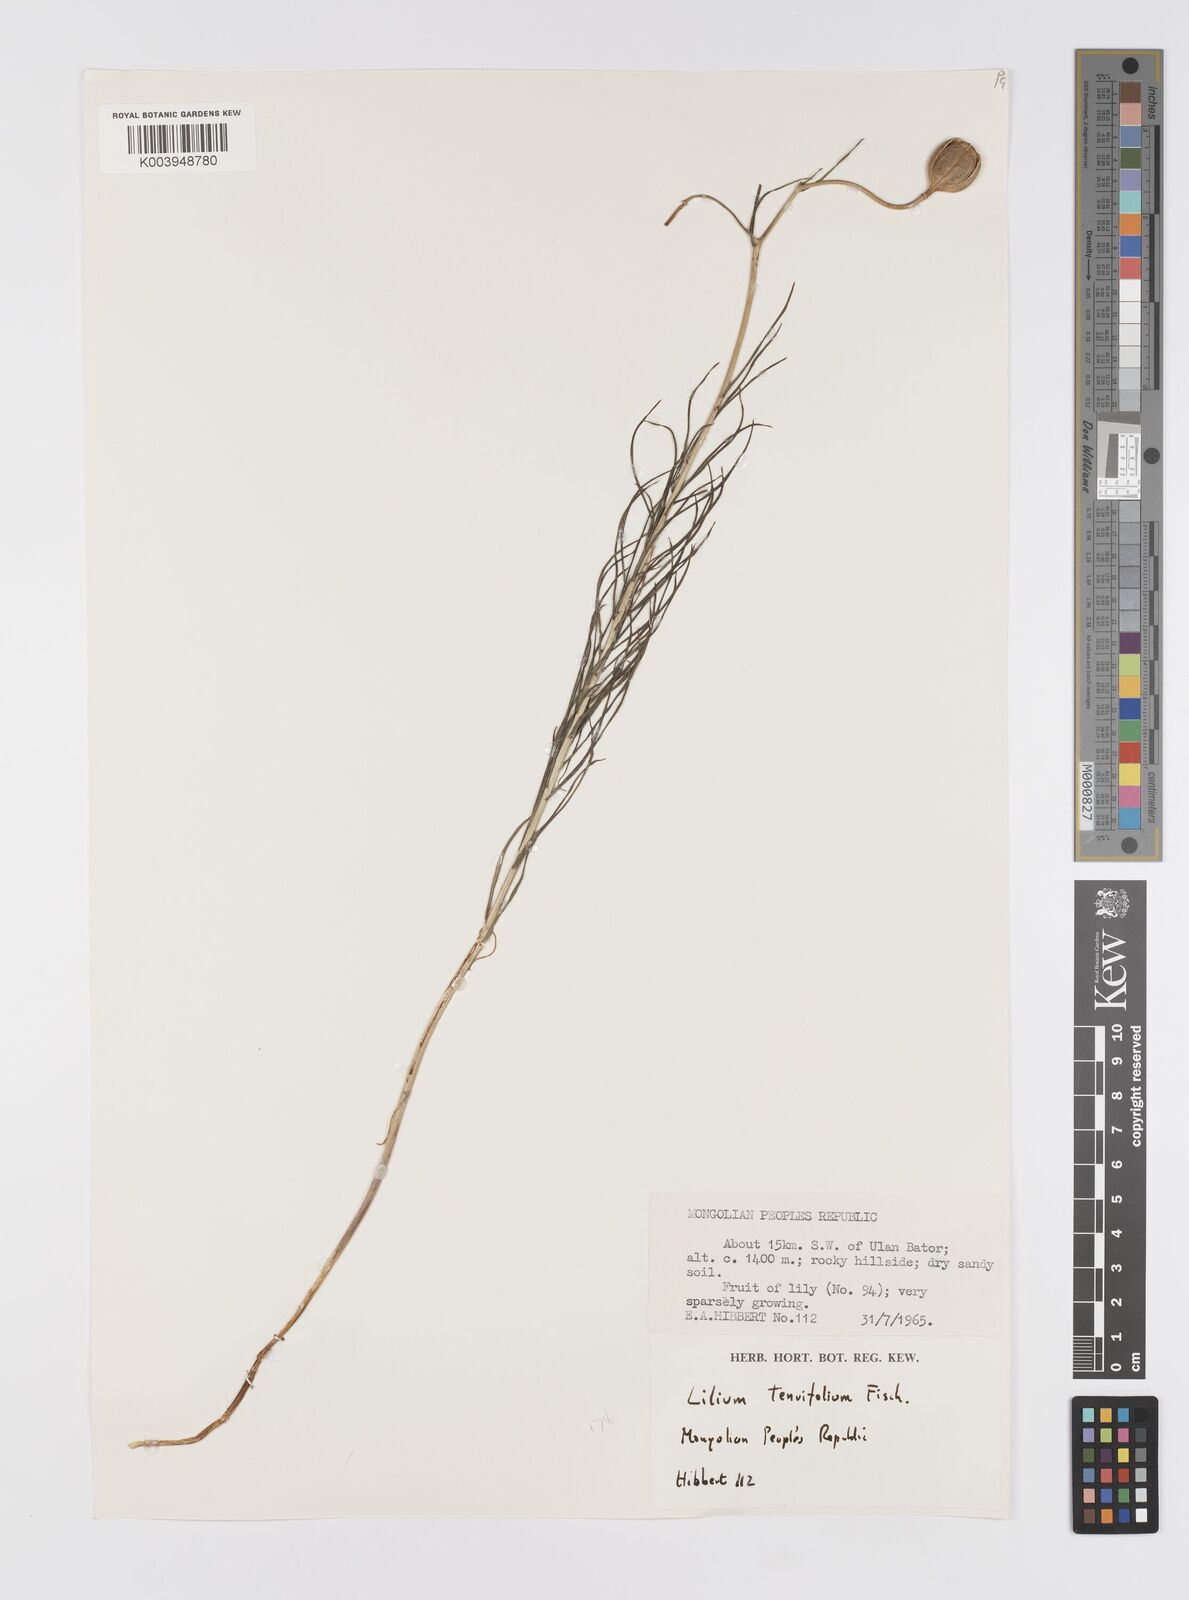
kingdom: Plantae
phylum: Tracheophyta
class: Liliopsida
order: Liliales
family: Liliaceae
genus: Lilium
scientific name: Lilium pumilum
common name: Coral lily
